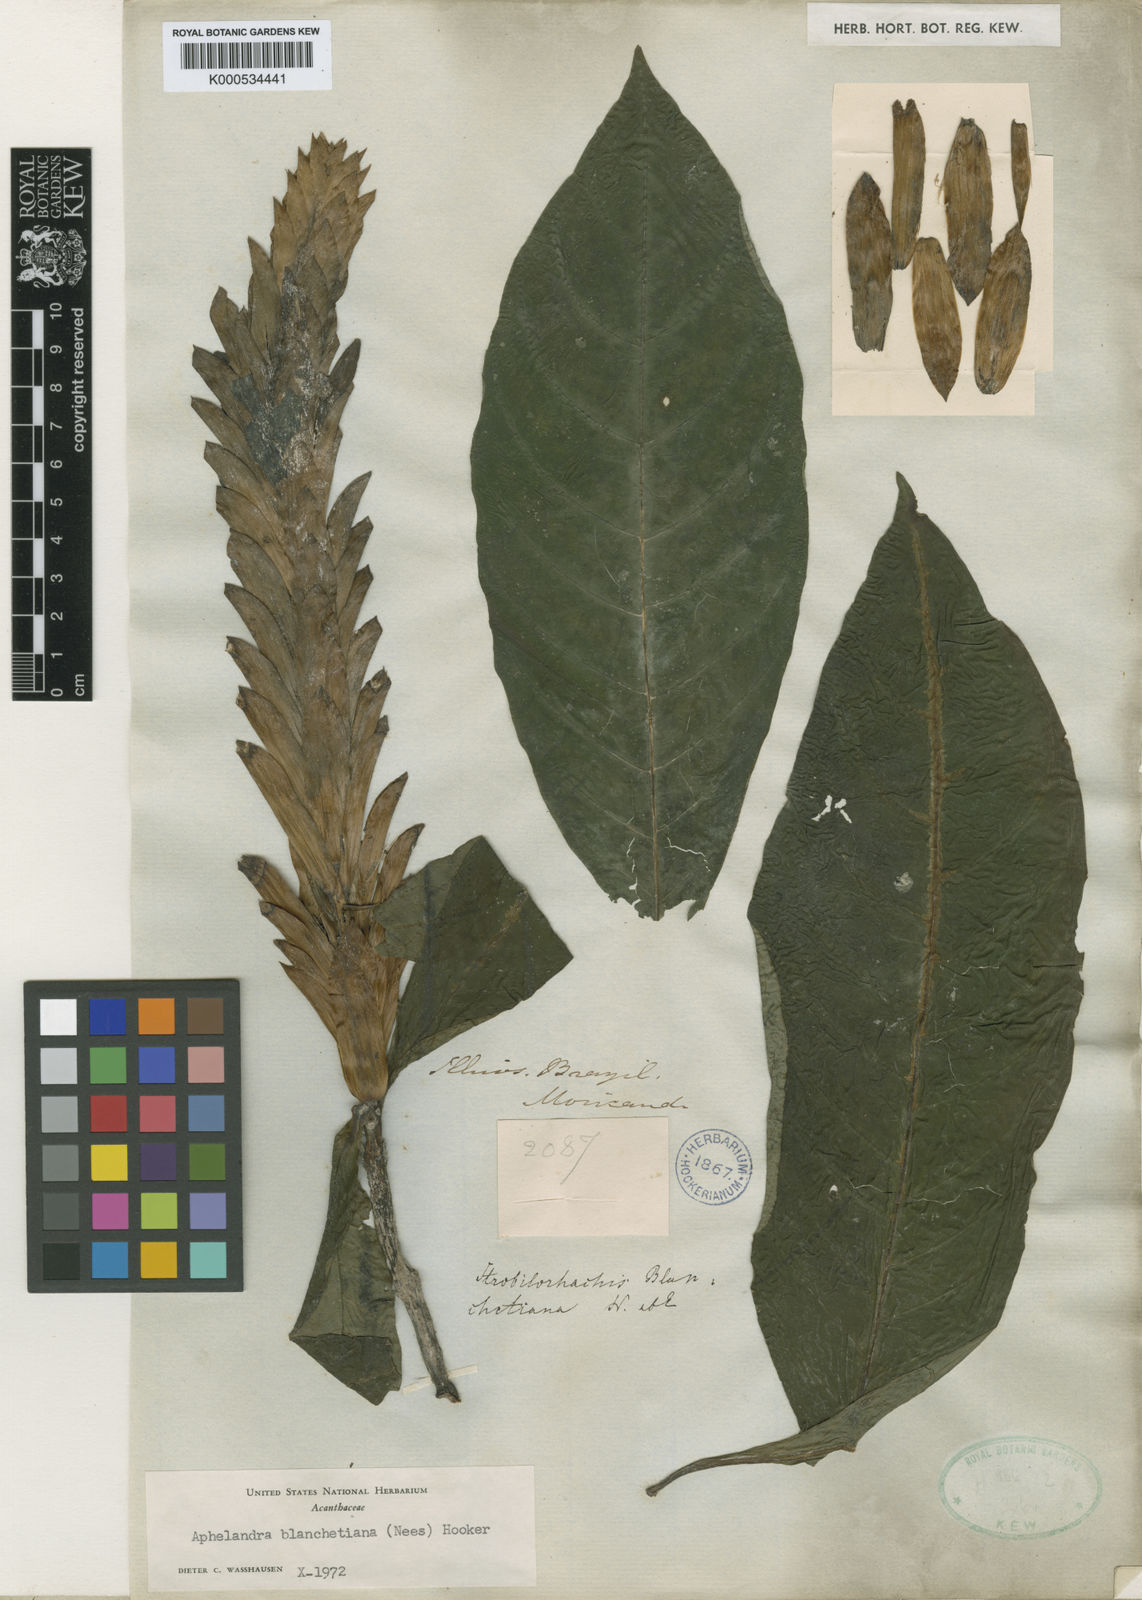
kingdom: Plantae
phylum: Tracheophyta
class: Magnoliopsida
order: Lamiales
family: Acanthaceae
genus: Aphelandra
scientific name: Aphelandra blanchetiana
